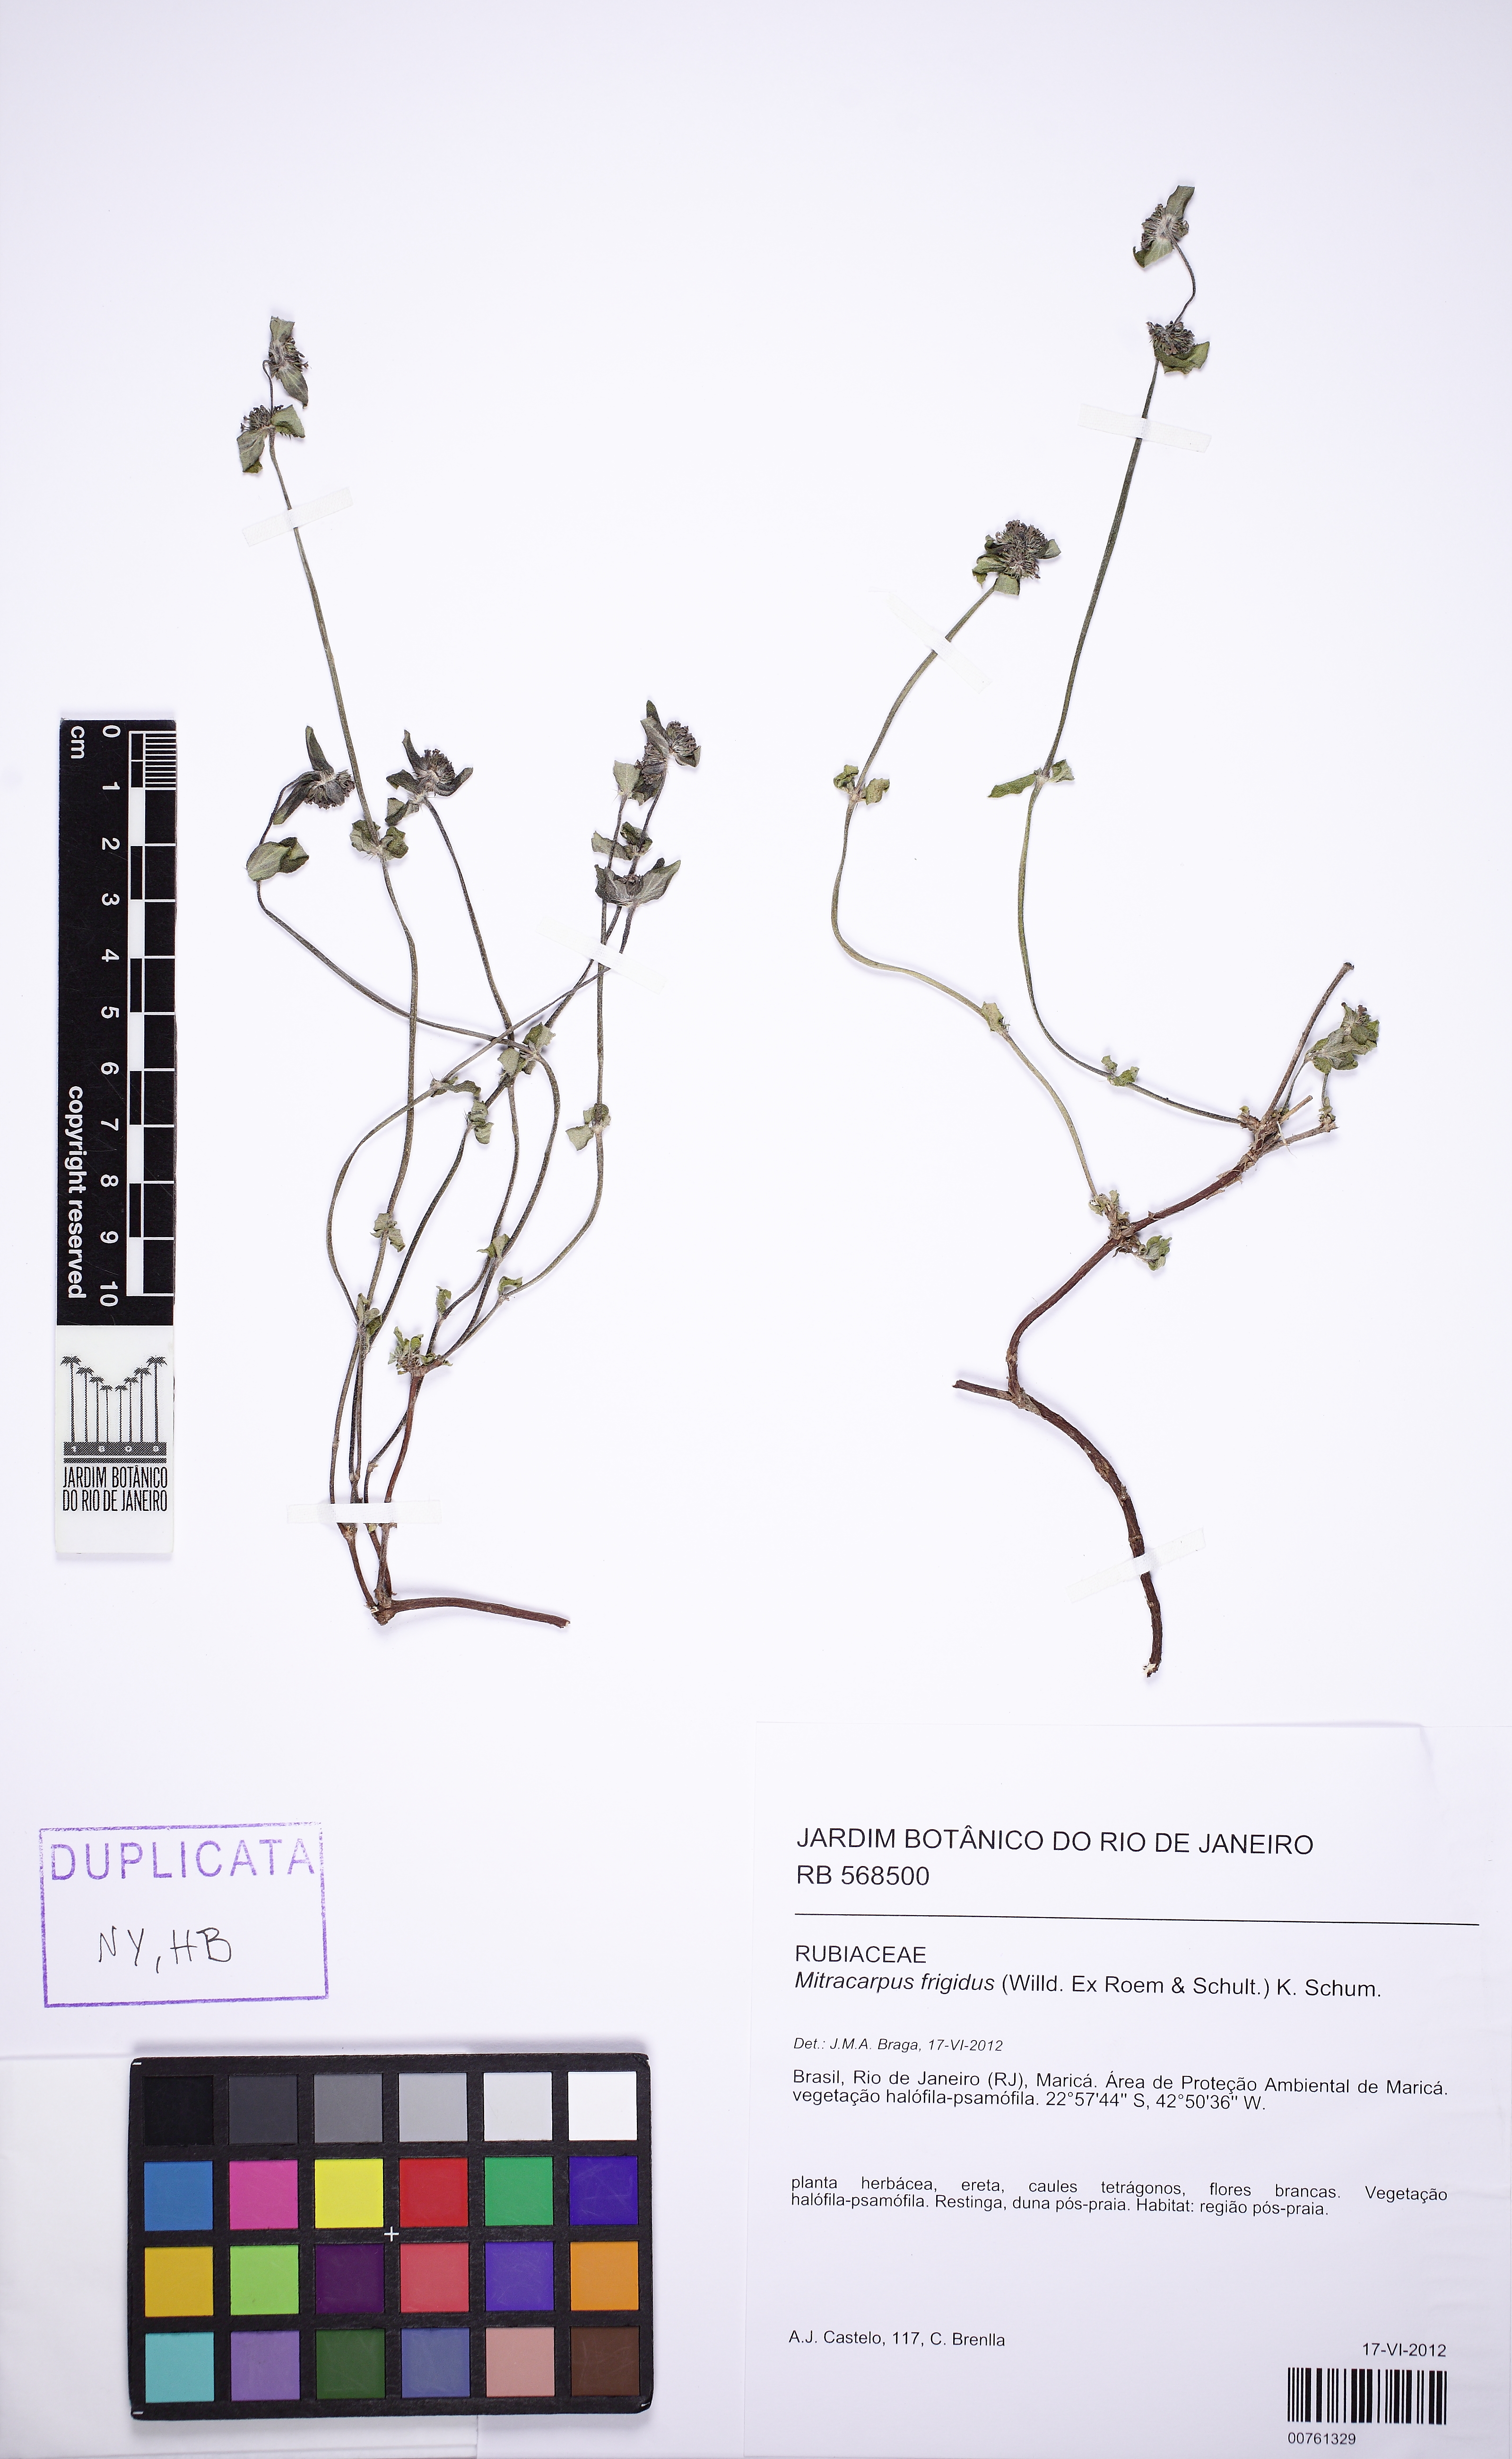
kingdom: Plantae
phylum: Tracheophyta
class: Magnoliopsida
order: Gentianales
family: Rubiaceae
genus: Mitracarpus
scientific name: Mitracarpus frigidus
